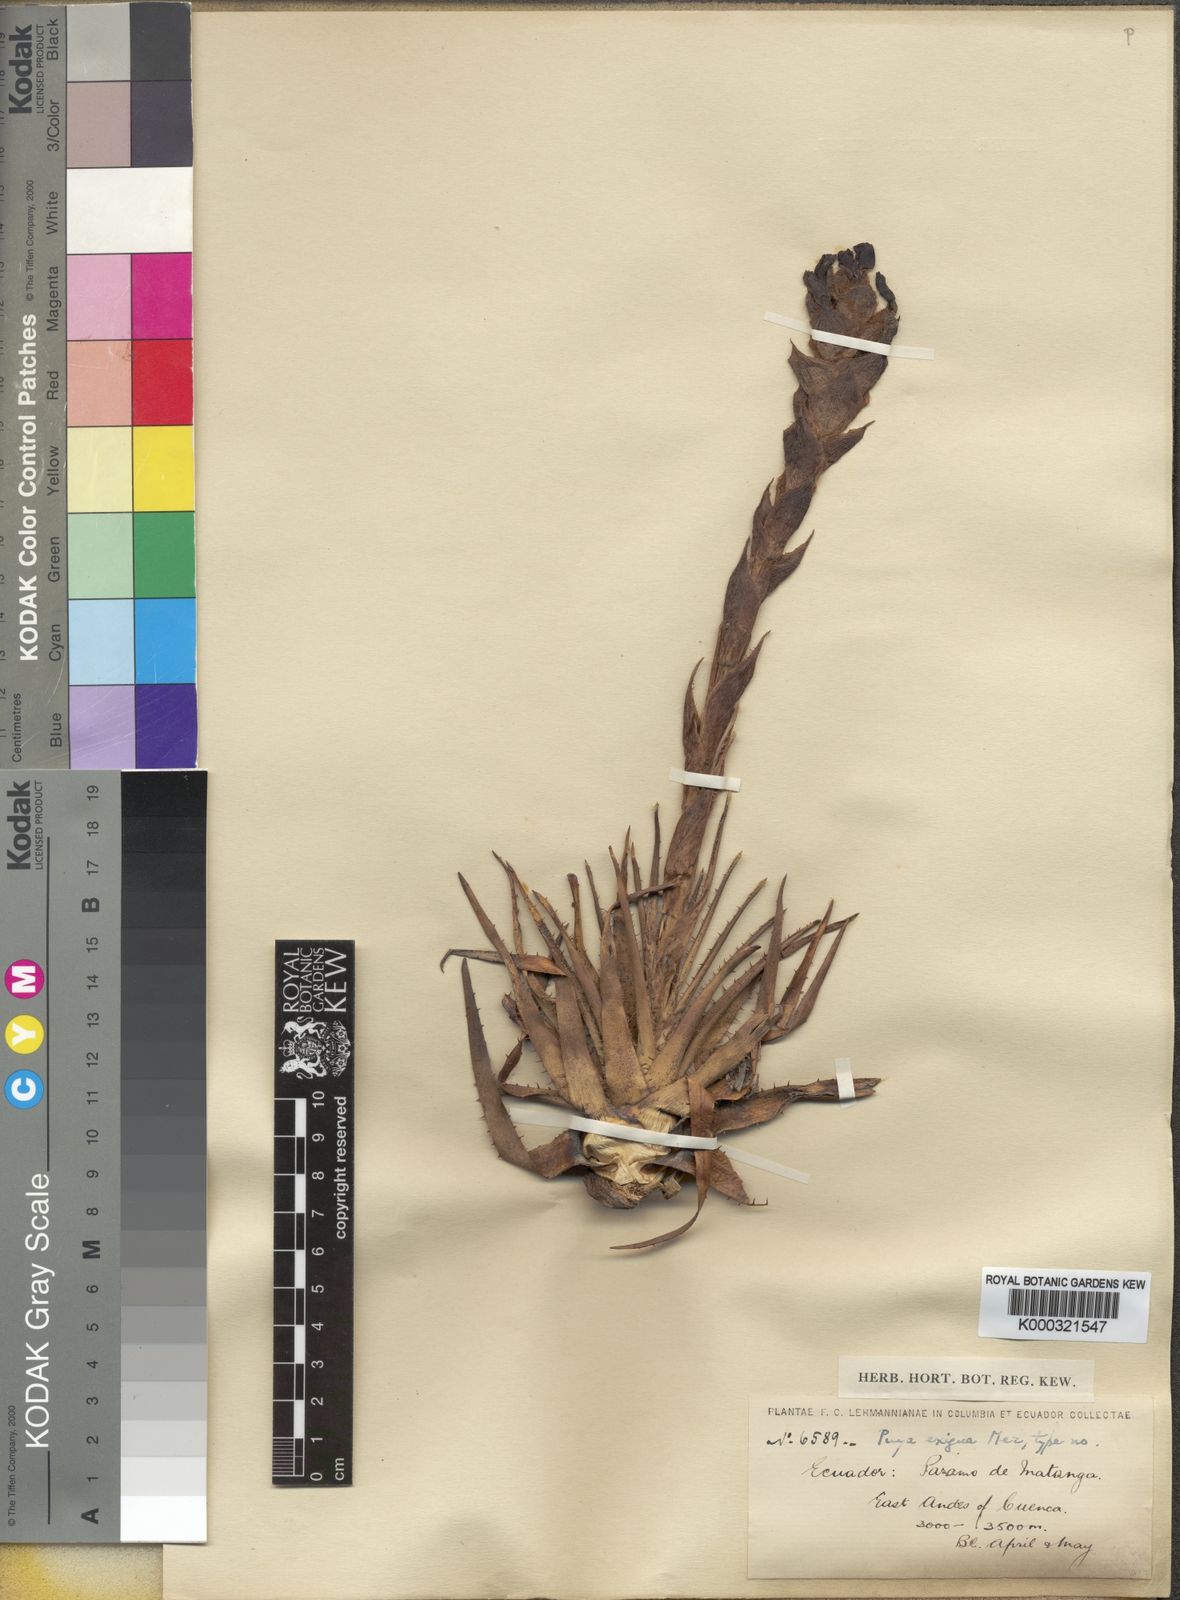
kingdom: Plantae
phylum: Tracheophyta
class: Liliopsida
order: Poales
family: Bromeliaceae
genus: Puya
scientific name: Puya exigua
